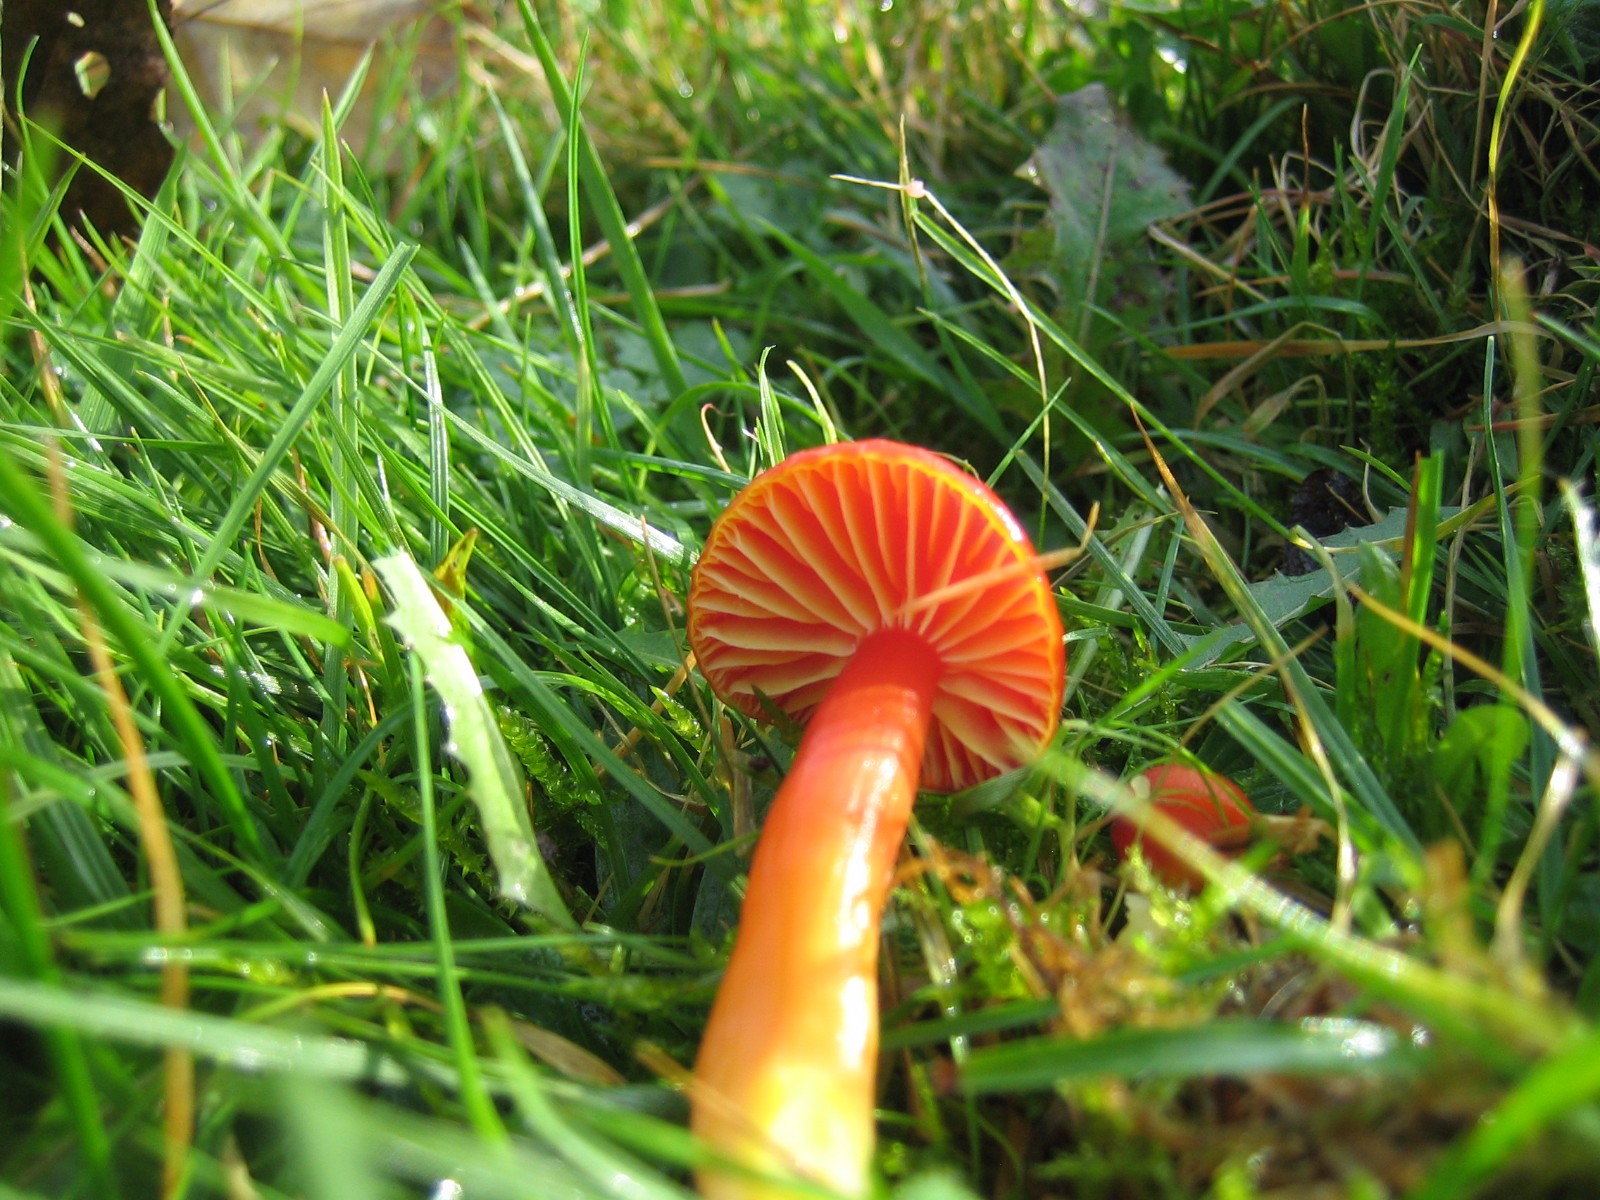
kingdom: Fungi
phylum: Basidiomycota
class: Agaricomycetes
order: Agaricales
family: Hygrophoraceae
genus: Hygrocybe
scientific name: Hygrocybe coccinea
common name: cinnober-vokshat
